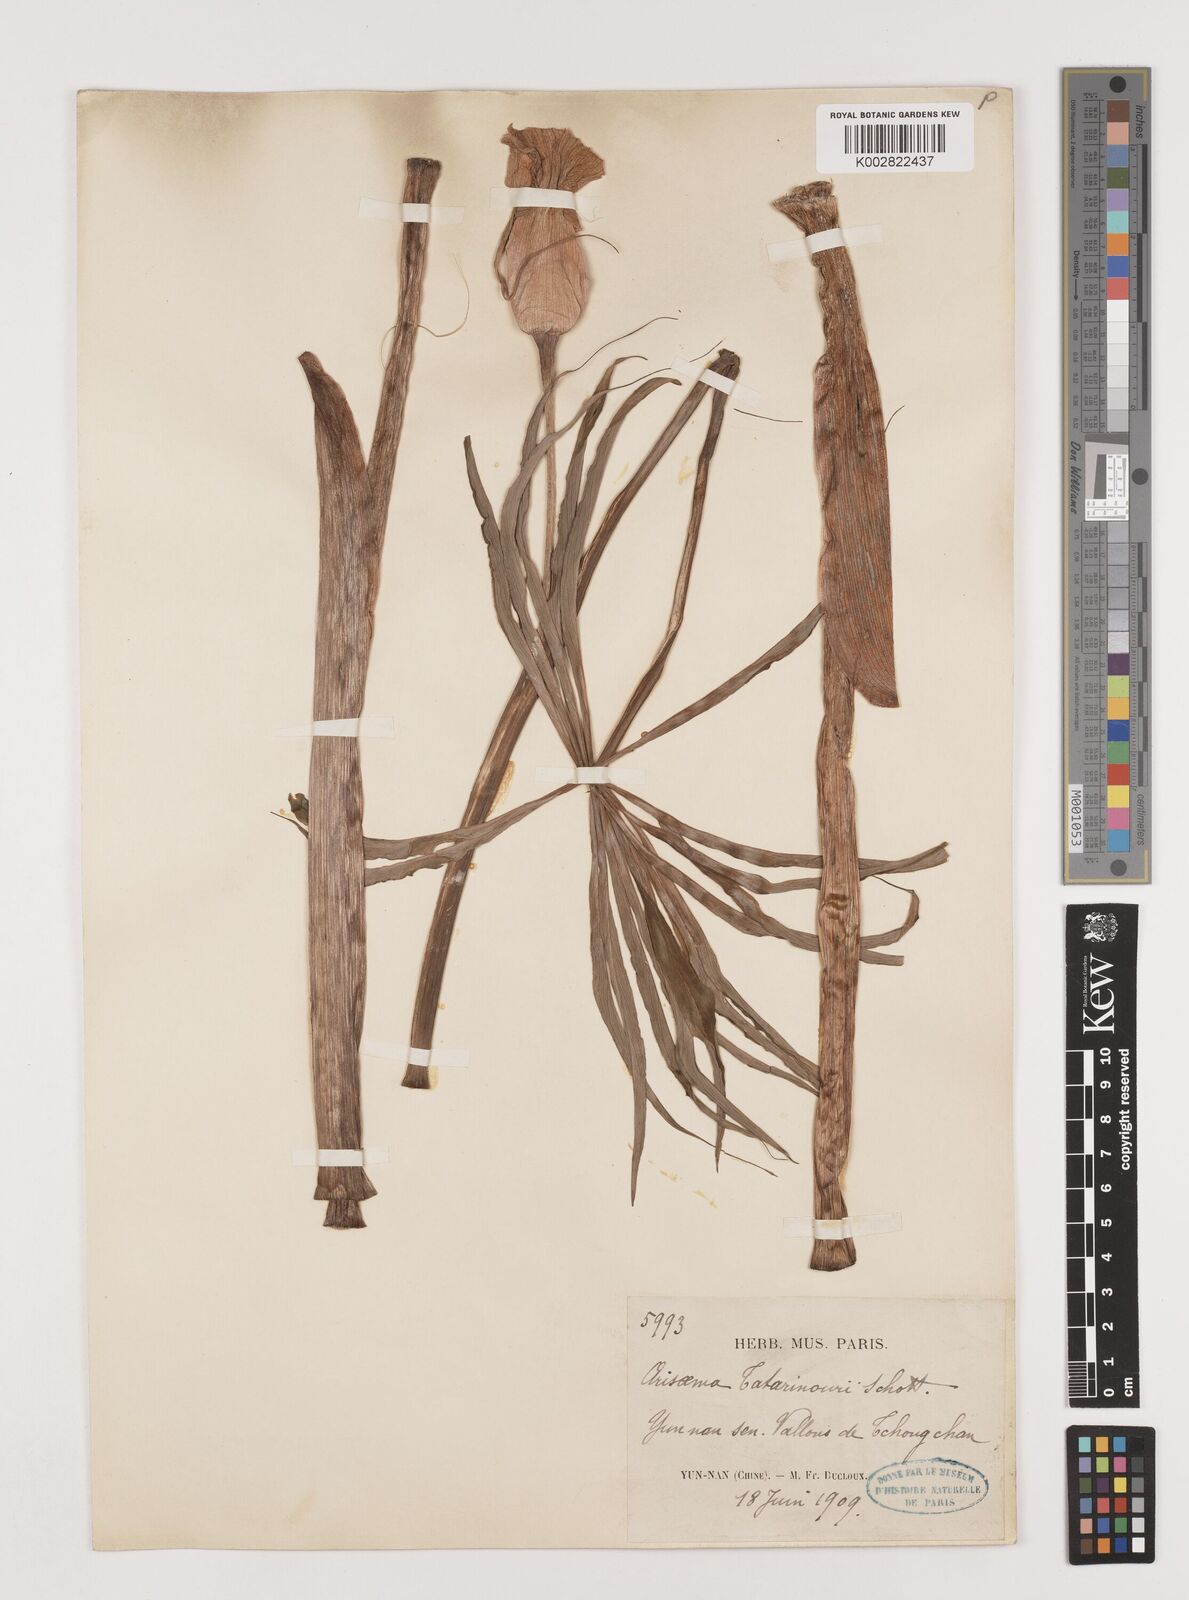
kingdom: Plantae
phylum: Tracheophyta
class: Liliopsida
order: Alismatales
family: Araceae
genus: Arisaema
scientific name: Arisaema erubescens
